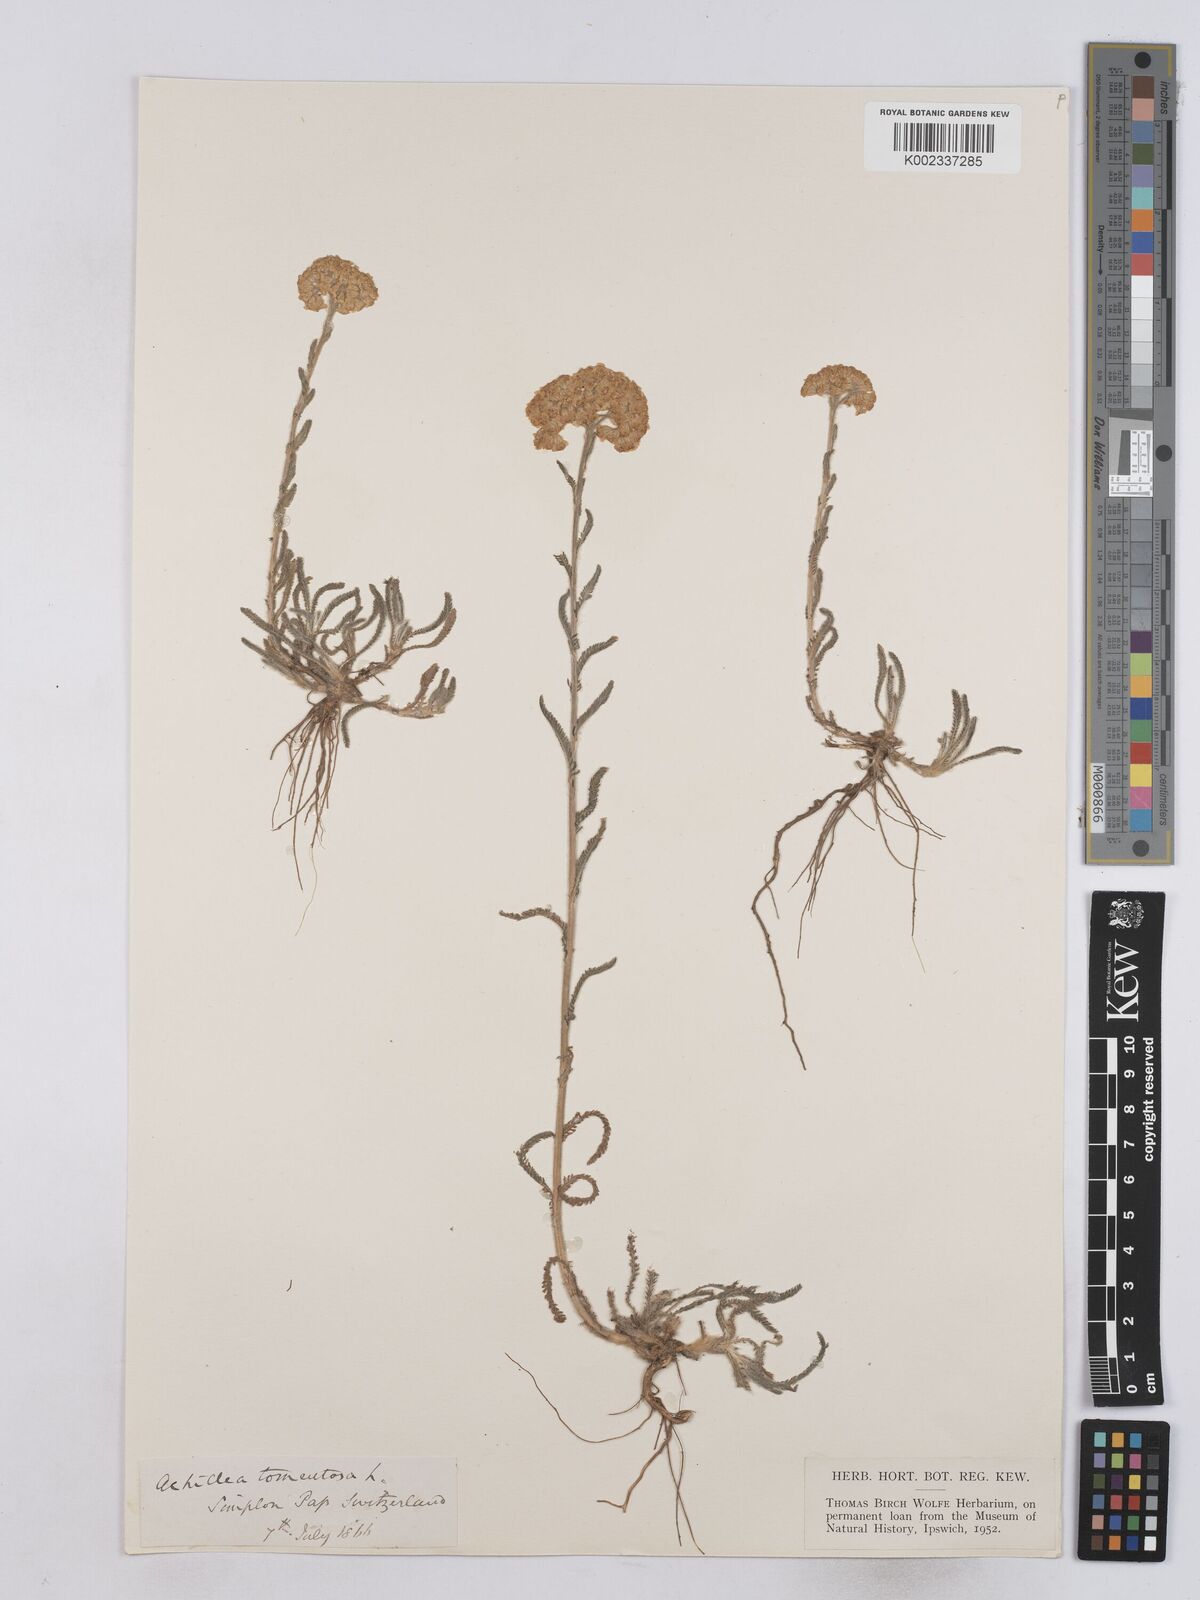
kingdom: Plantae
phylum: Tracheophyta
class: Magnoliopsida
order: Asterales
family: Asteraceae
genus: Achillea
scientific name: Achillea tomentosa
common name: Yellow milfoil
